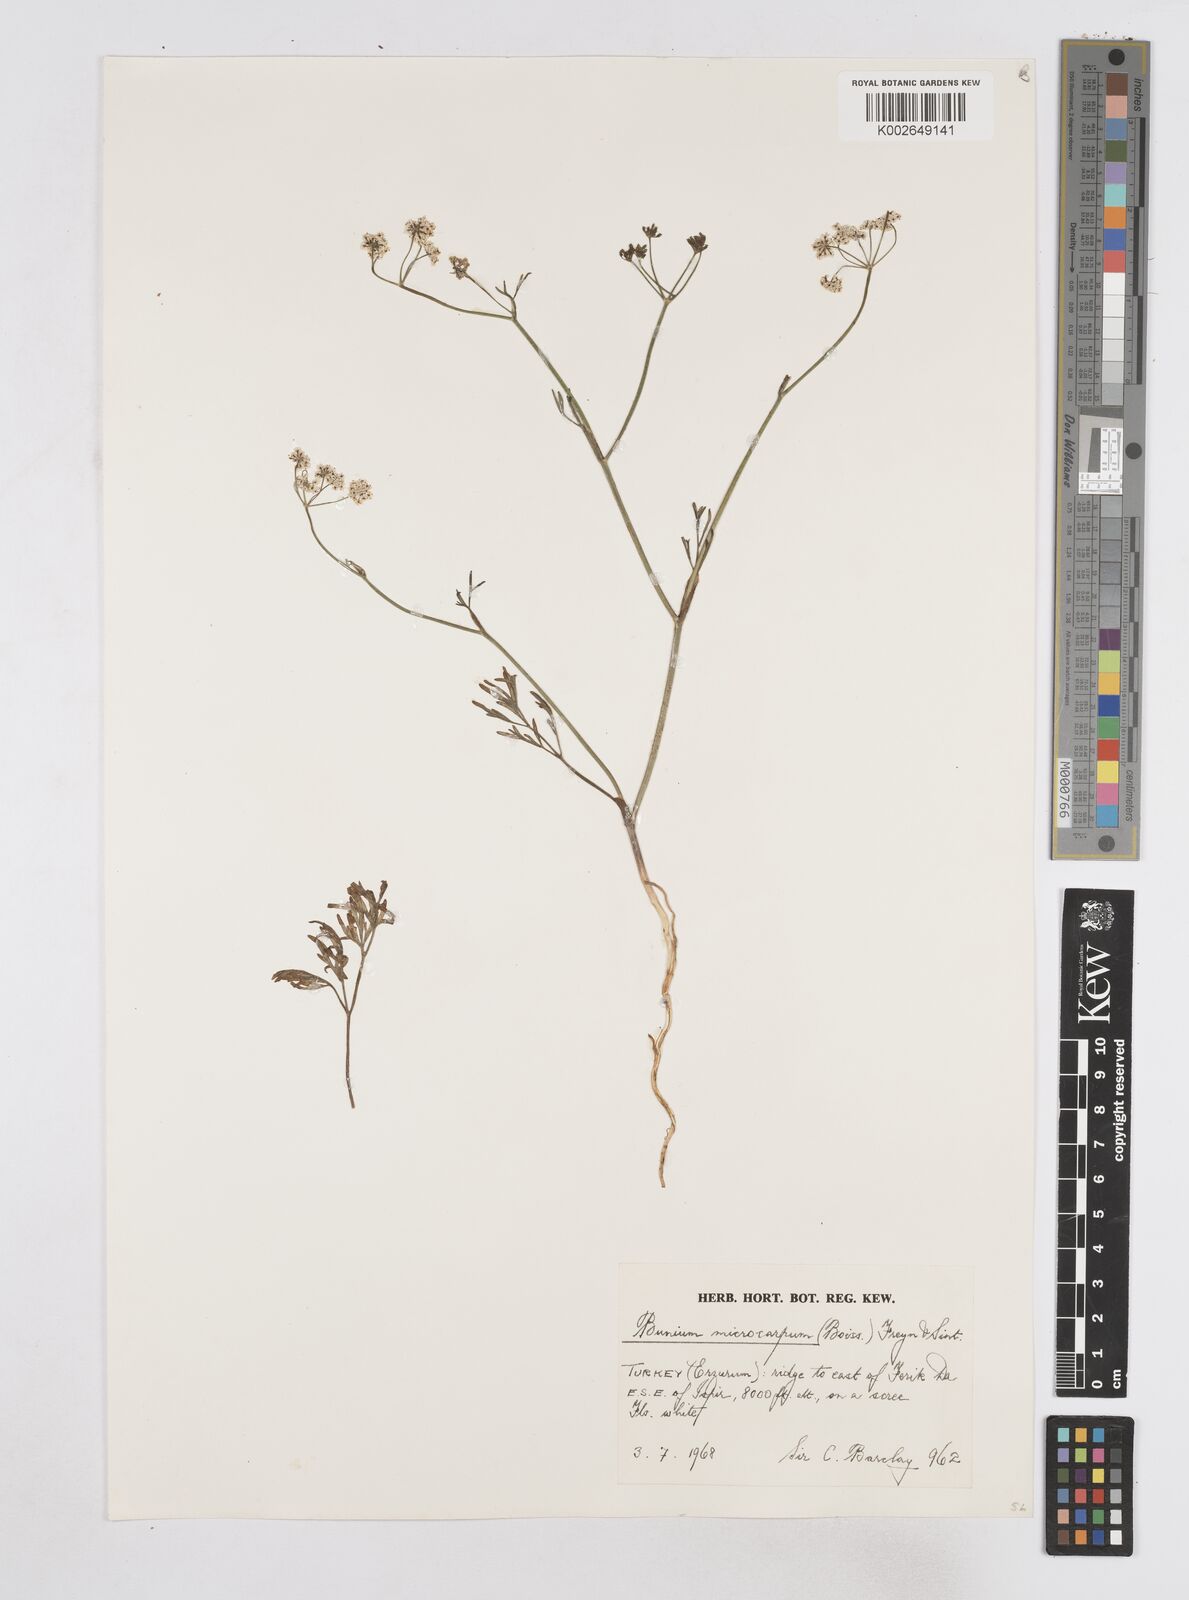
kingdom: Plantae
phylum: Tracheophyta
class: Magnoliopsida
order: Apiales
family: Apiaceae
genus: Bunium
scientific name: Bunium microcarpum
